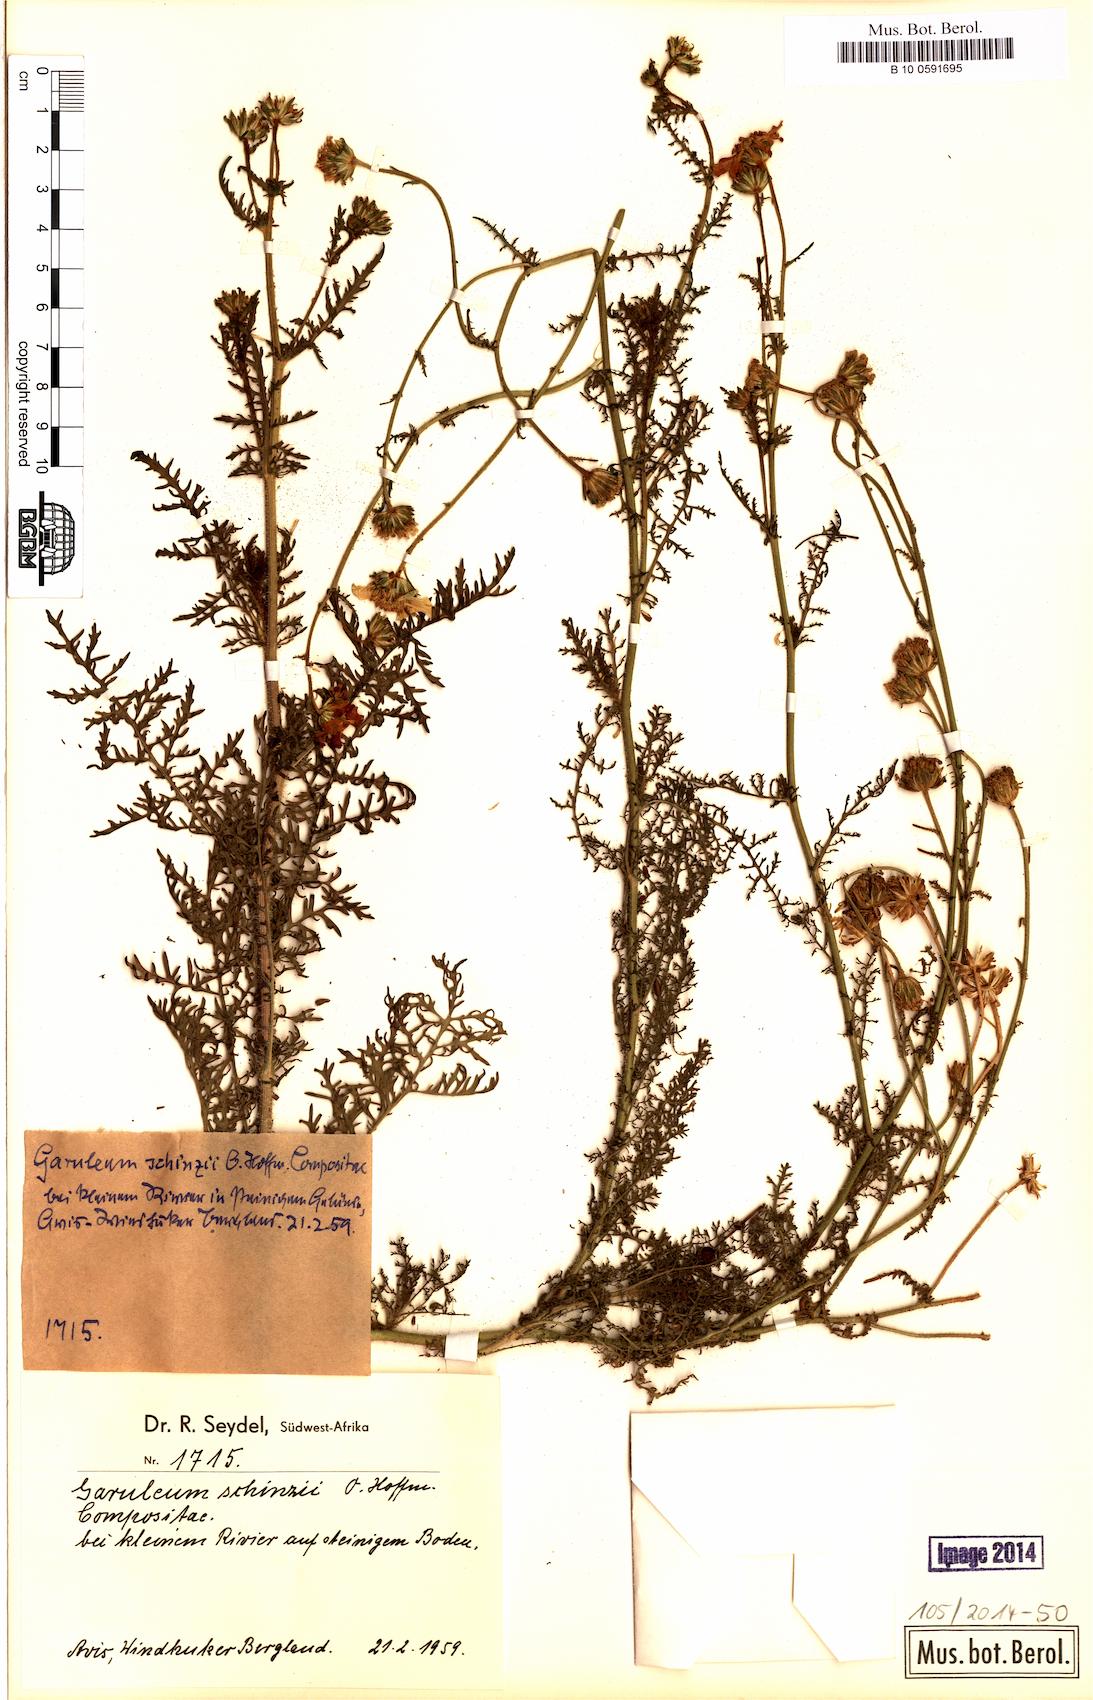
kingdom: Plantae
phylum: Tracheophyta
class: Magnoliopsida
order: Asterales
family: Asteraceae
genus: Garuleum
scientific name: Garuleum schinzii
